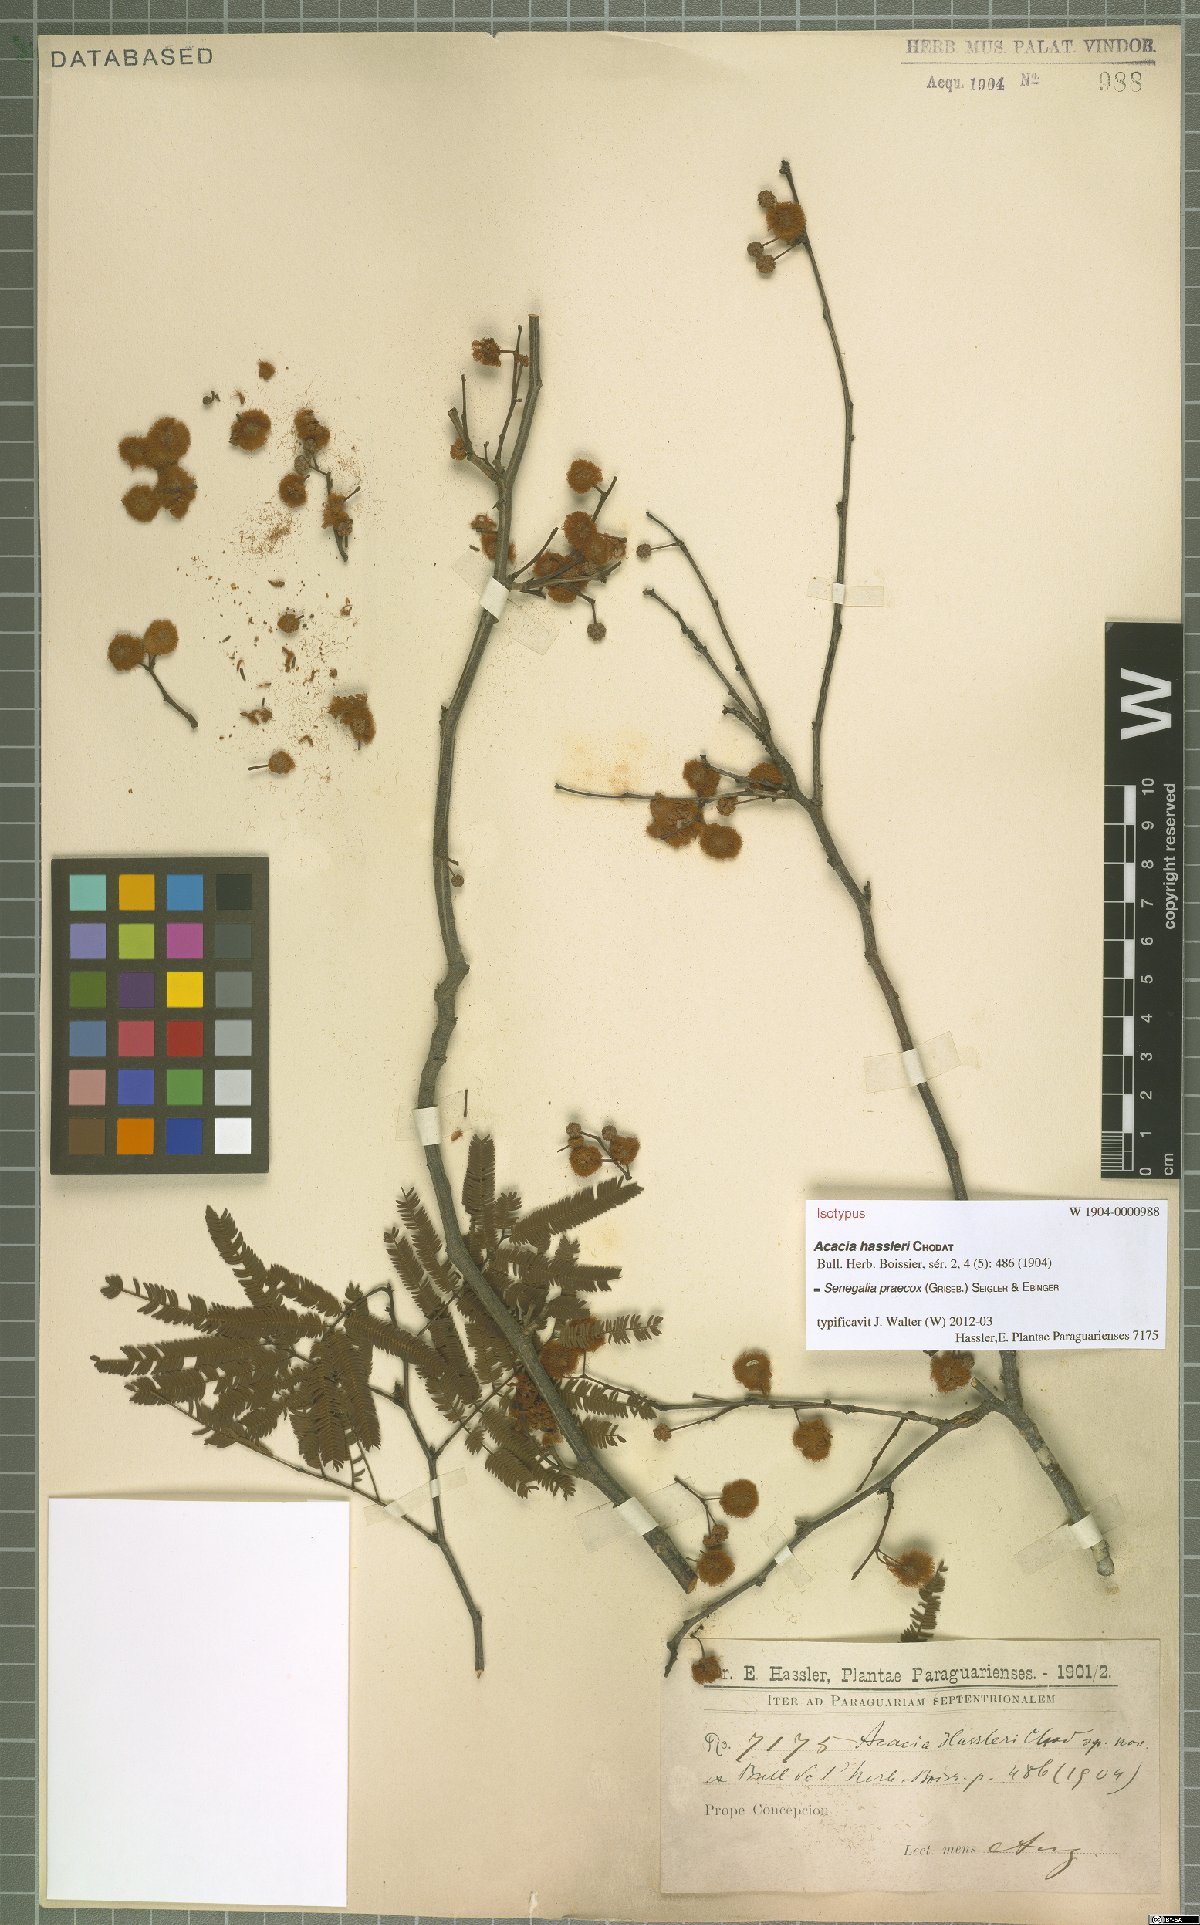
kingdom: Plantae
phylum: Tracheophyta
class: Magnoliopsida
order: Fabales
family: Fabaceae
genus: Senegalia
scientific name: Senegalia praecox
